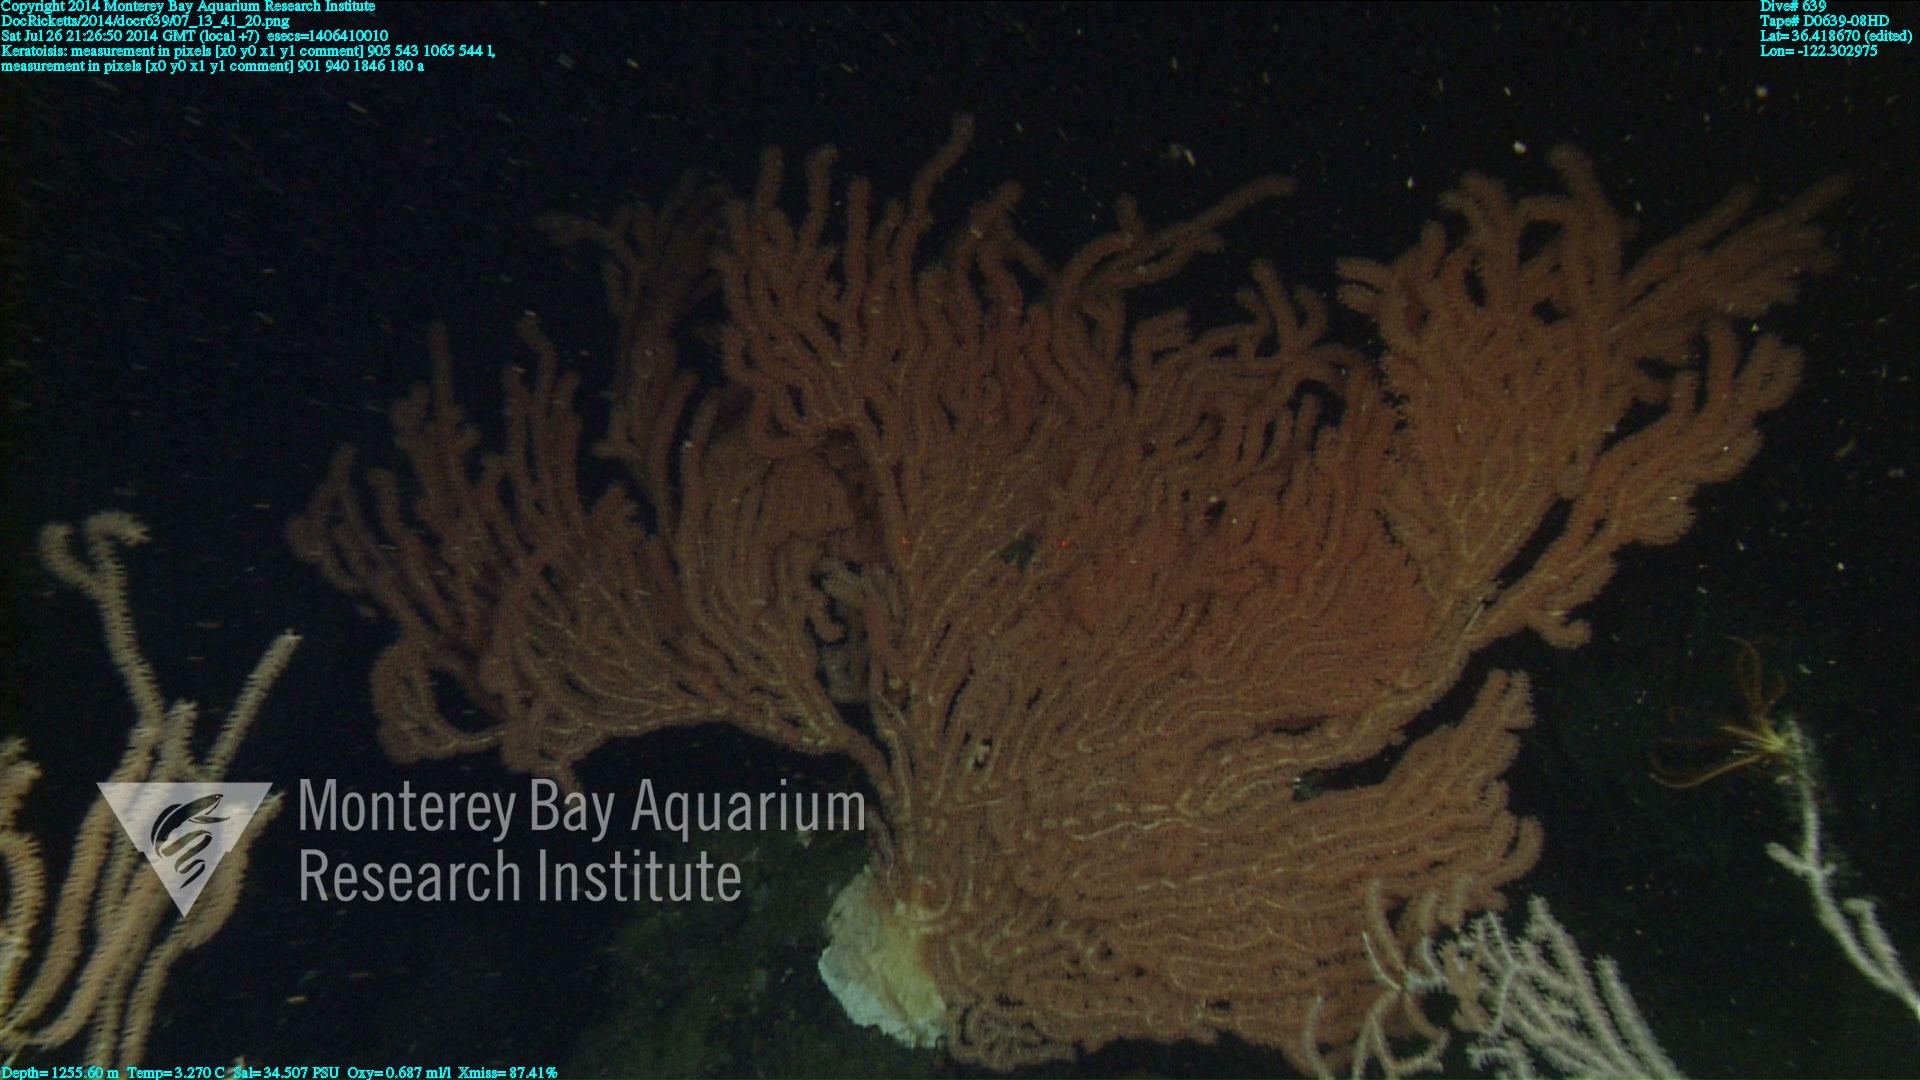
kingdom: Animalia
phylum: Cnidaria
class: Anthozoa
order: Scleralcyonacea
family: Keratoisididae
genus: Keratoisis
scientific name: Keratoisis
